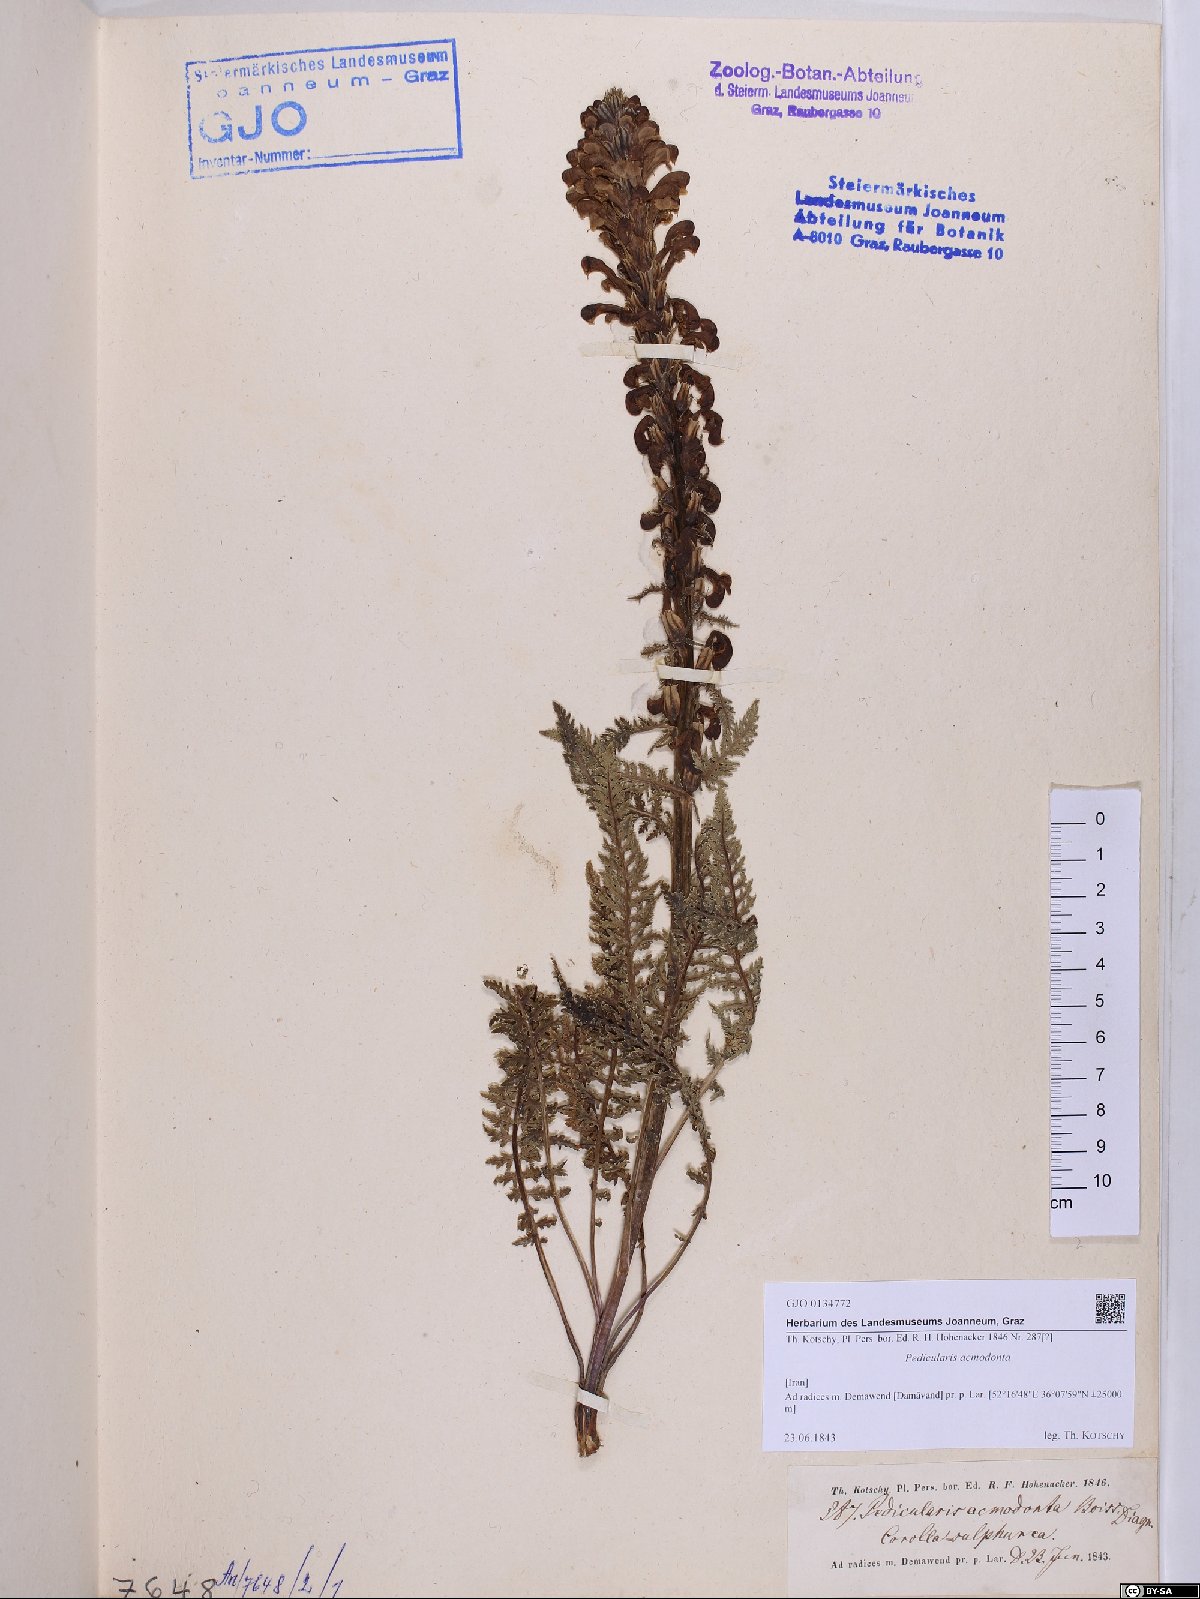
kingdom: Plantae
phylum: Tracheophyta
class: Magnoliopsida
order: Lamiales
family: Orobanchaceae
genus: Pedicularis
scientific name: Pedicularis acmodonta
